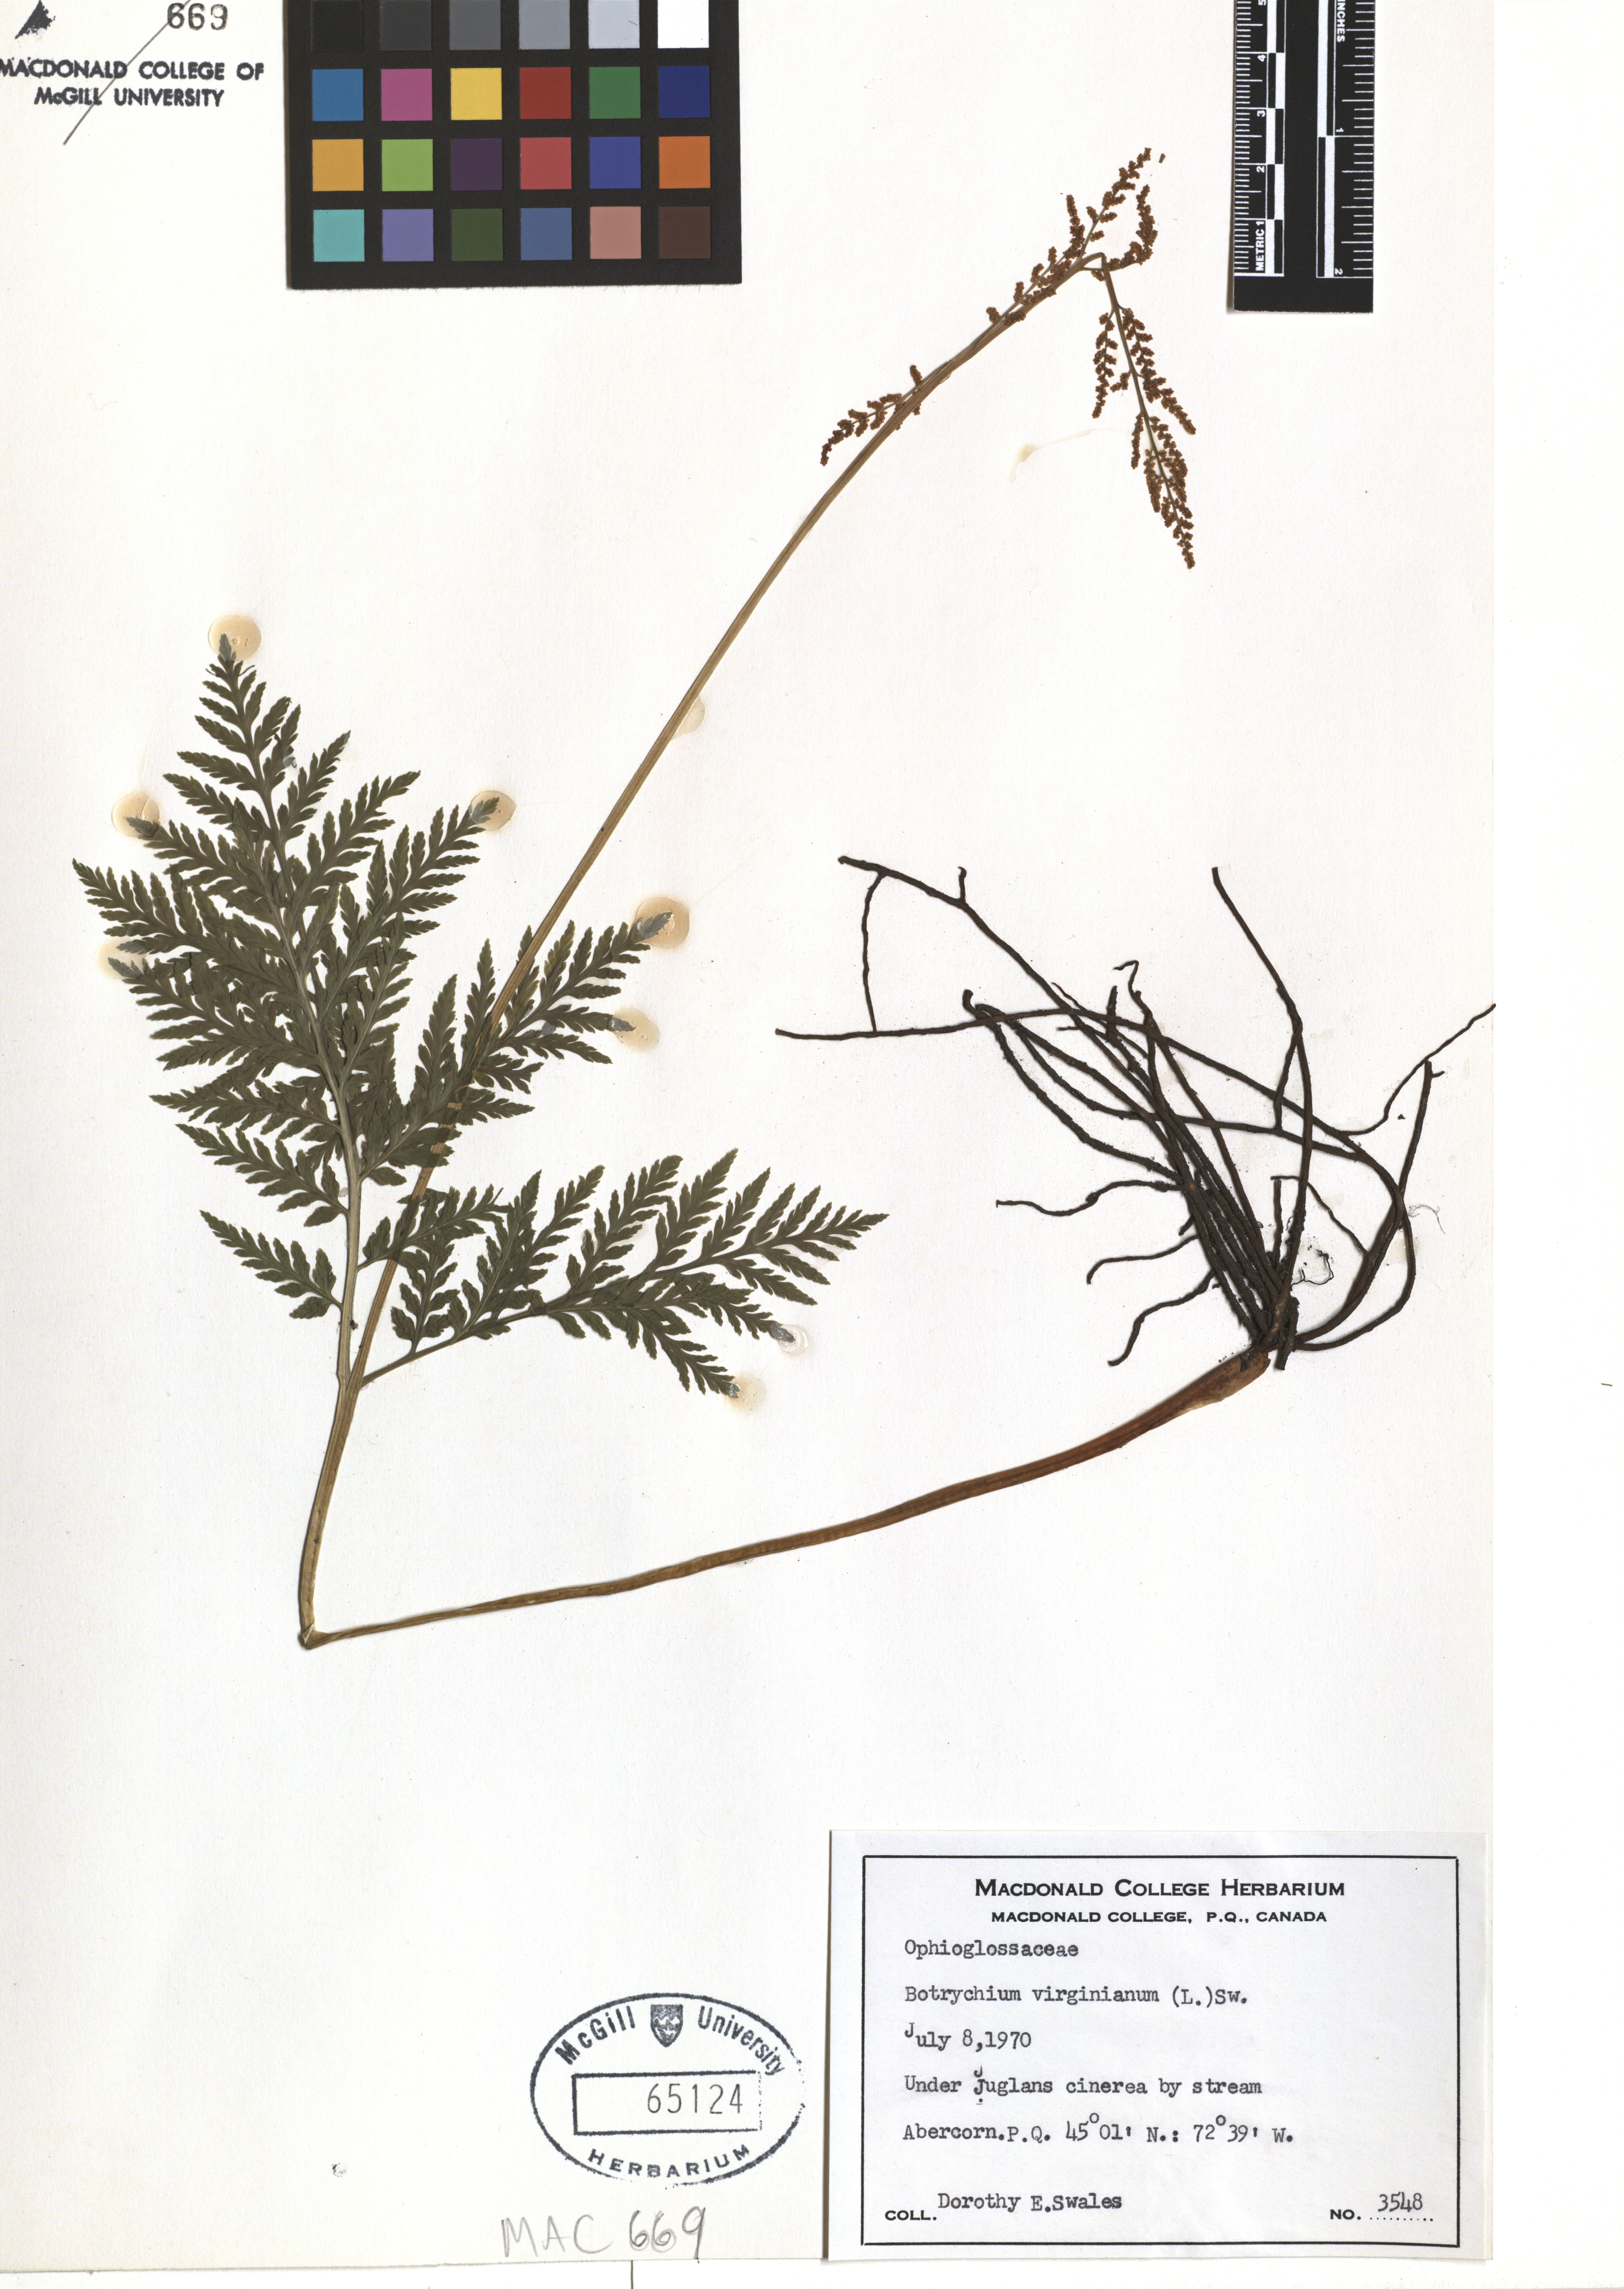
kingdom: Plantae
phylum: Tracheophyta
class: Polypodiopsida
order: Ophioglossales
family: Ophioglossaceae
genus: Botrypus
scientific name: Botrypus virginianus
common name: Common grapefern
